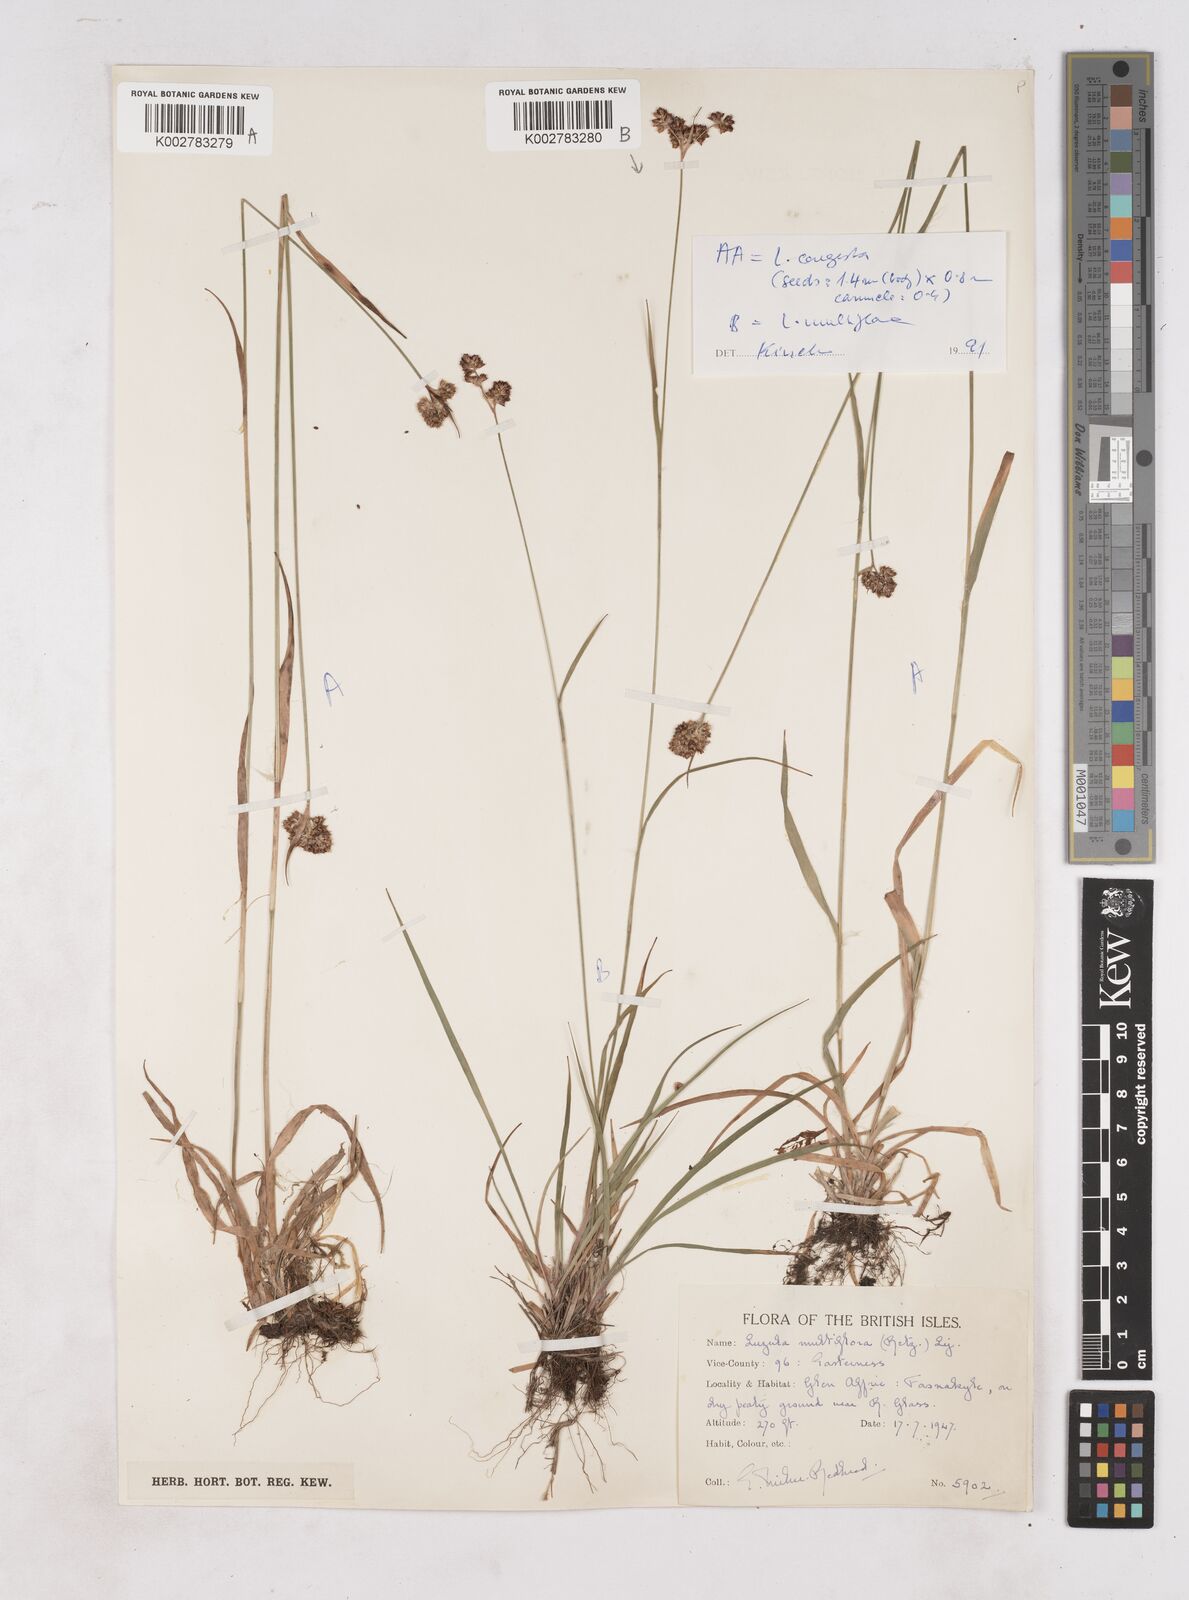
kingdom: Plantae
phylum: Tracheophyta
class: Liliopsida
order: Poales
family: Juncaceae
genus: Luzula
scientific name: Luzula multiflora
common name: Heath wood-rush
